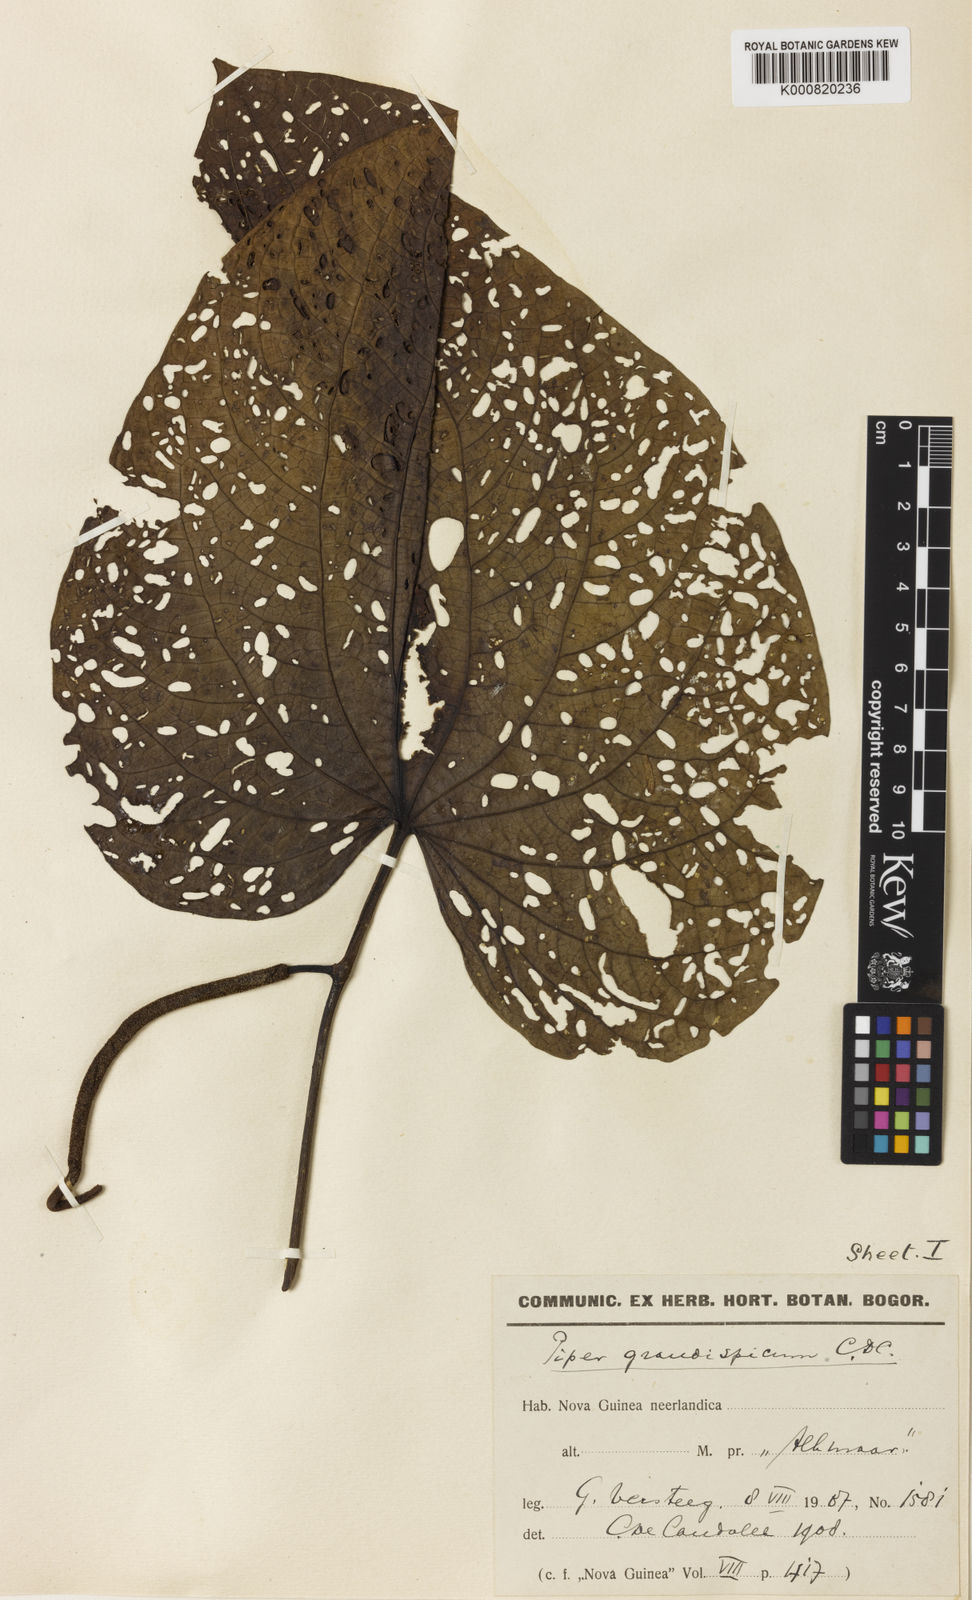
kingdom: Plantae
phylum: Tracheophyta
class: Magnoliopsida
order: Piperales
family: Piperaceae
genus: Piper
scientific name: Piper grandispicum
